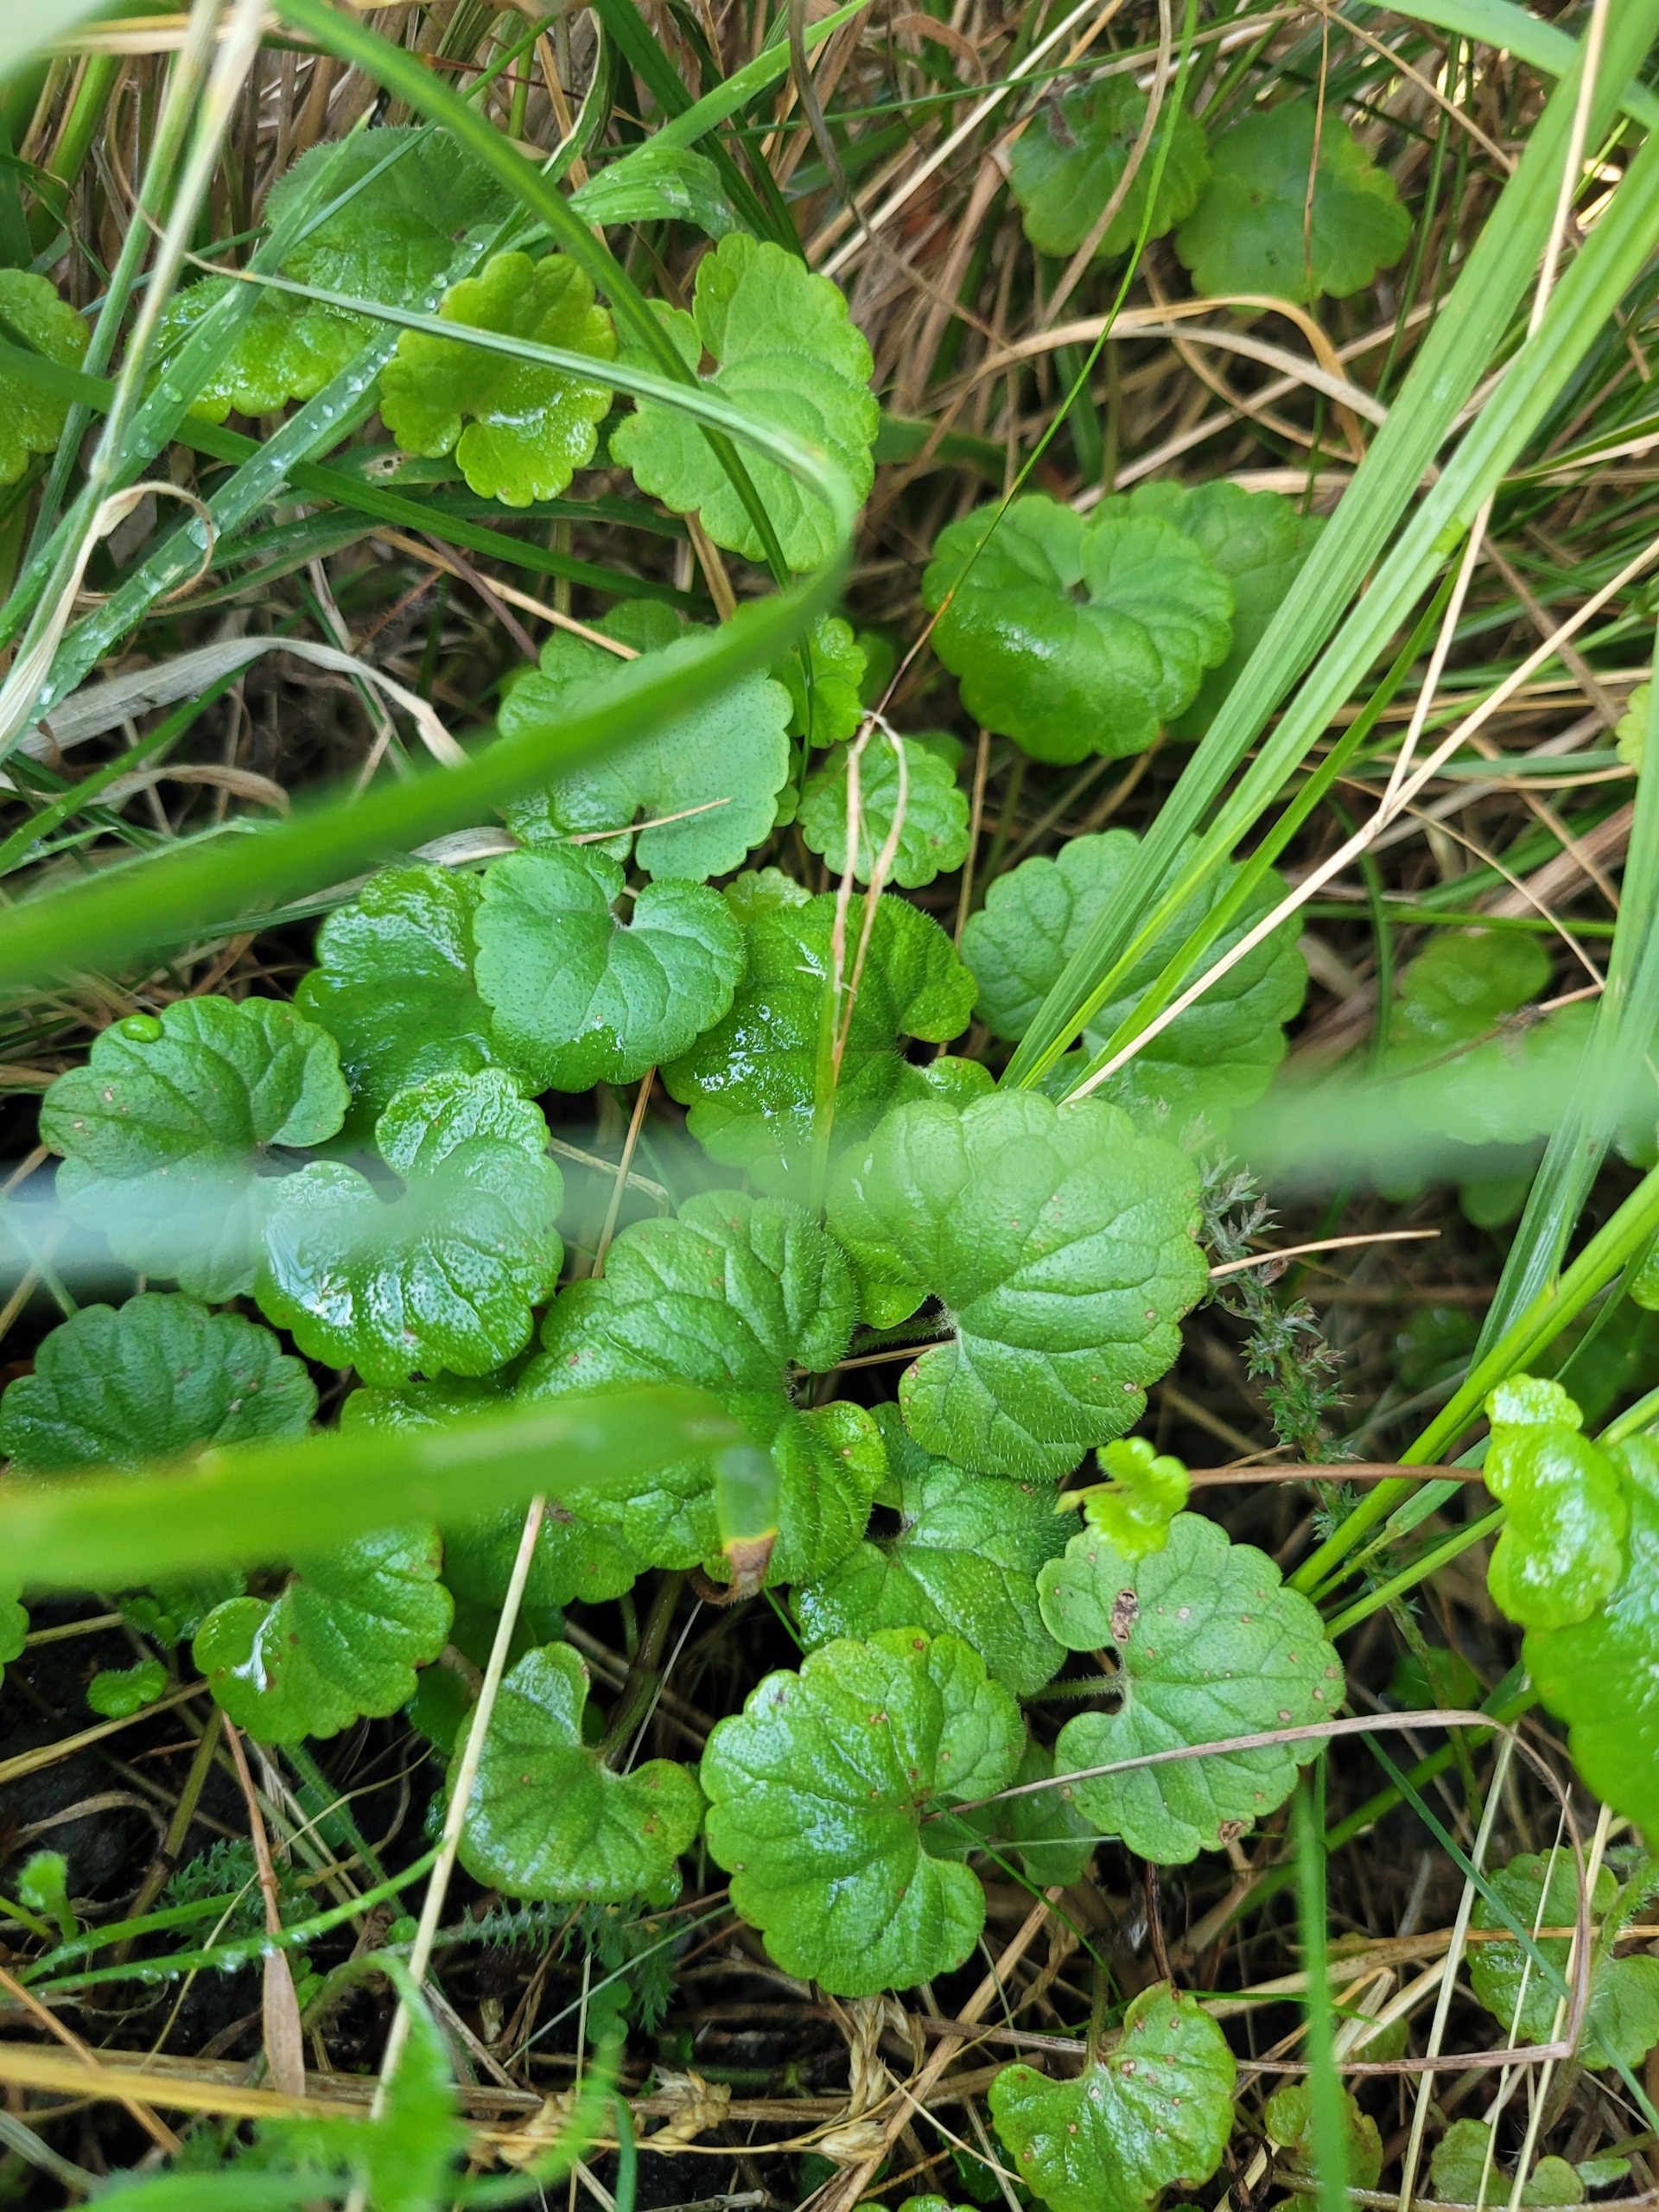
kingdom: Plantae
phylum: Tracheophyta
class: Magnoliopsida
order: Lamiales
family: Lamiaceae
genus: Glechoma
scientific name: Glechoma hederacea
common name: Korsknap
